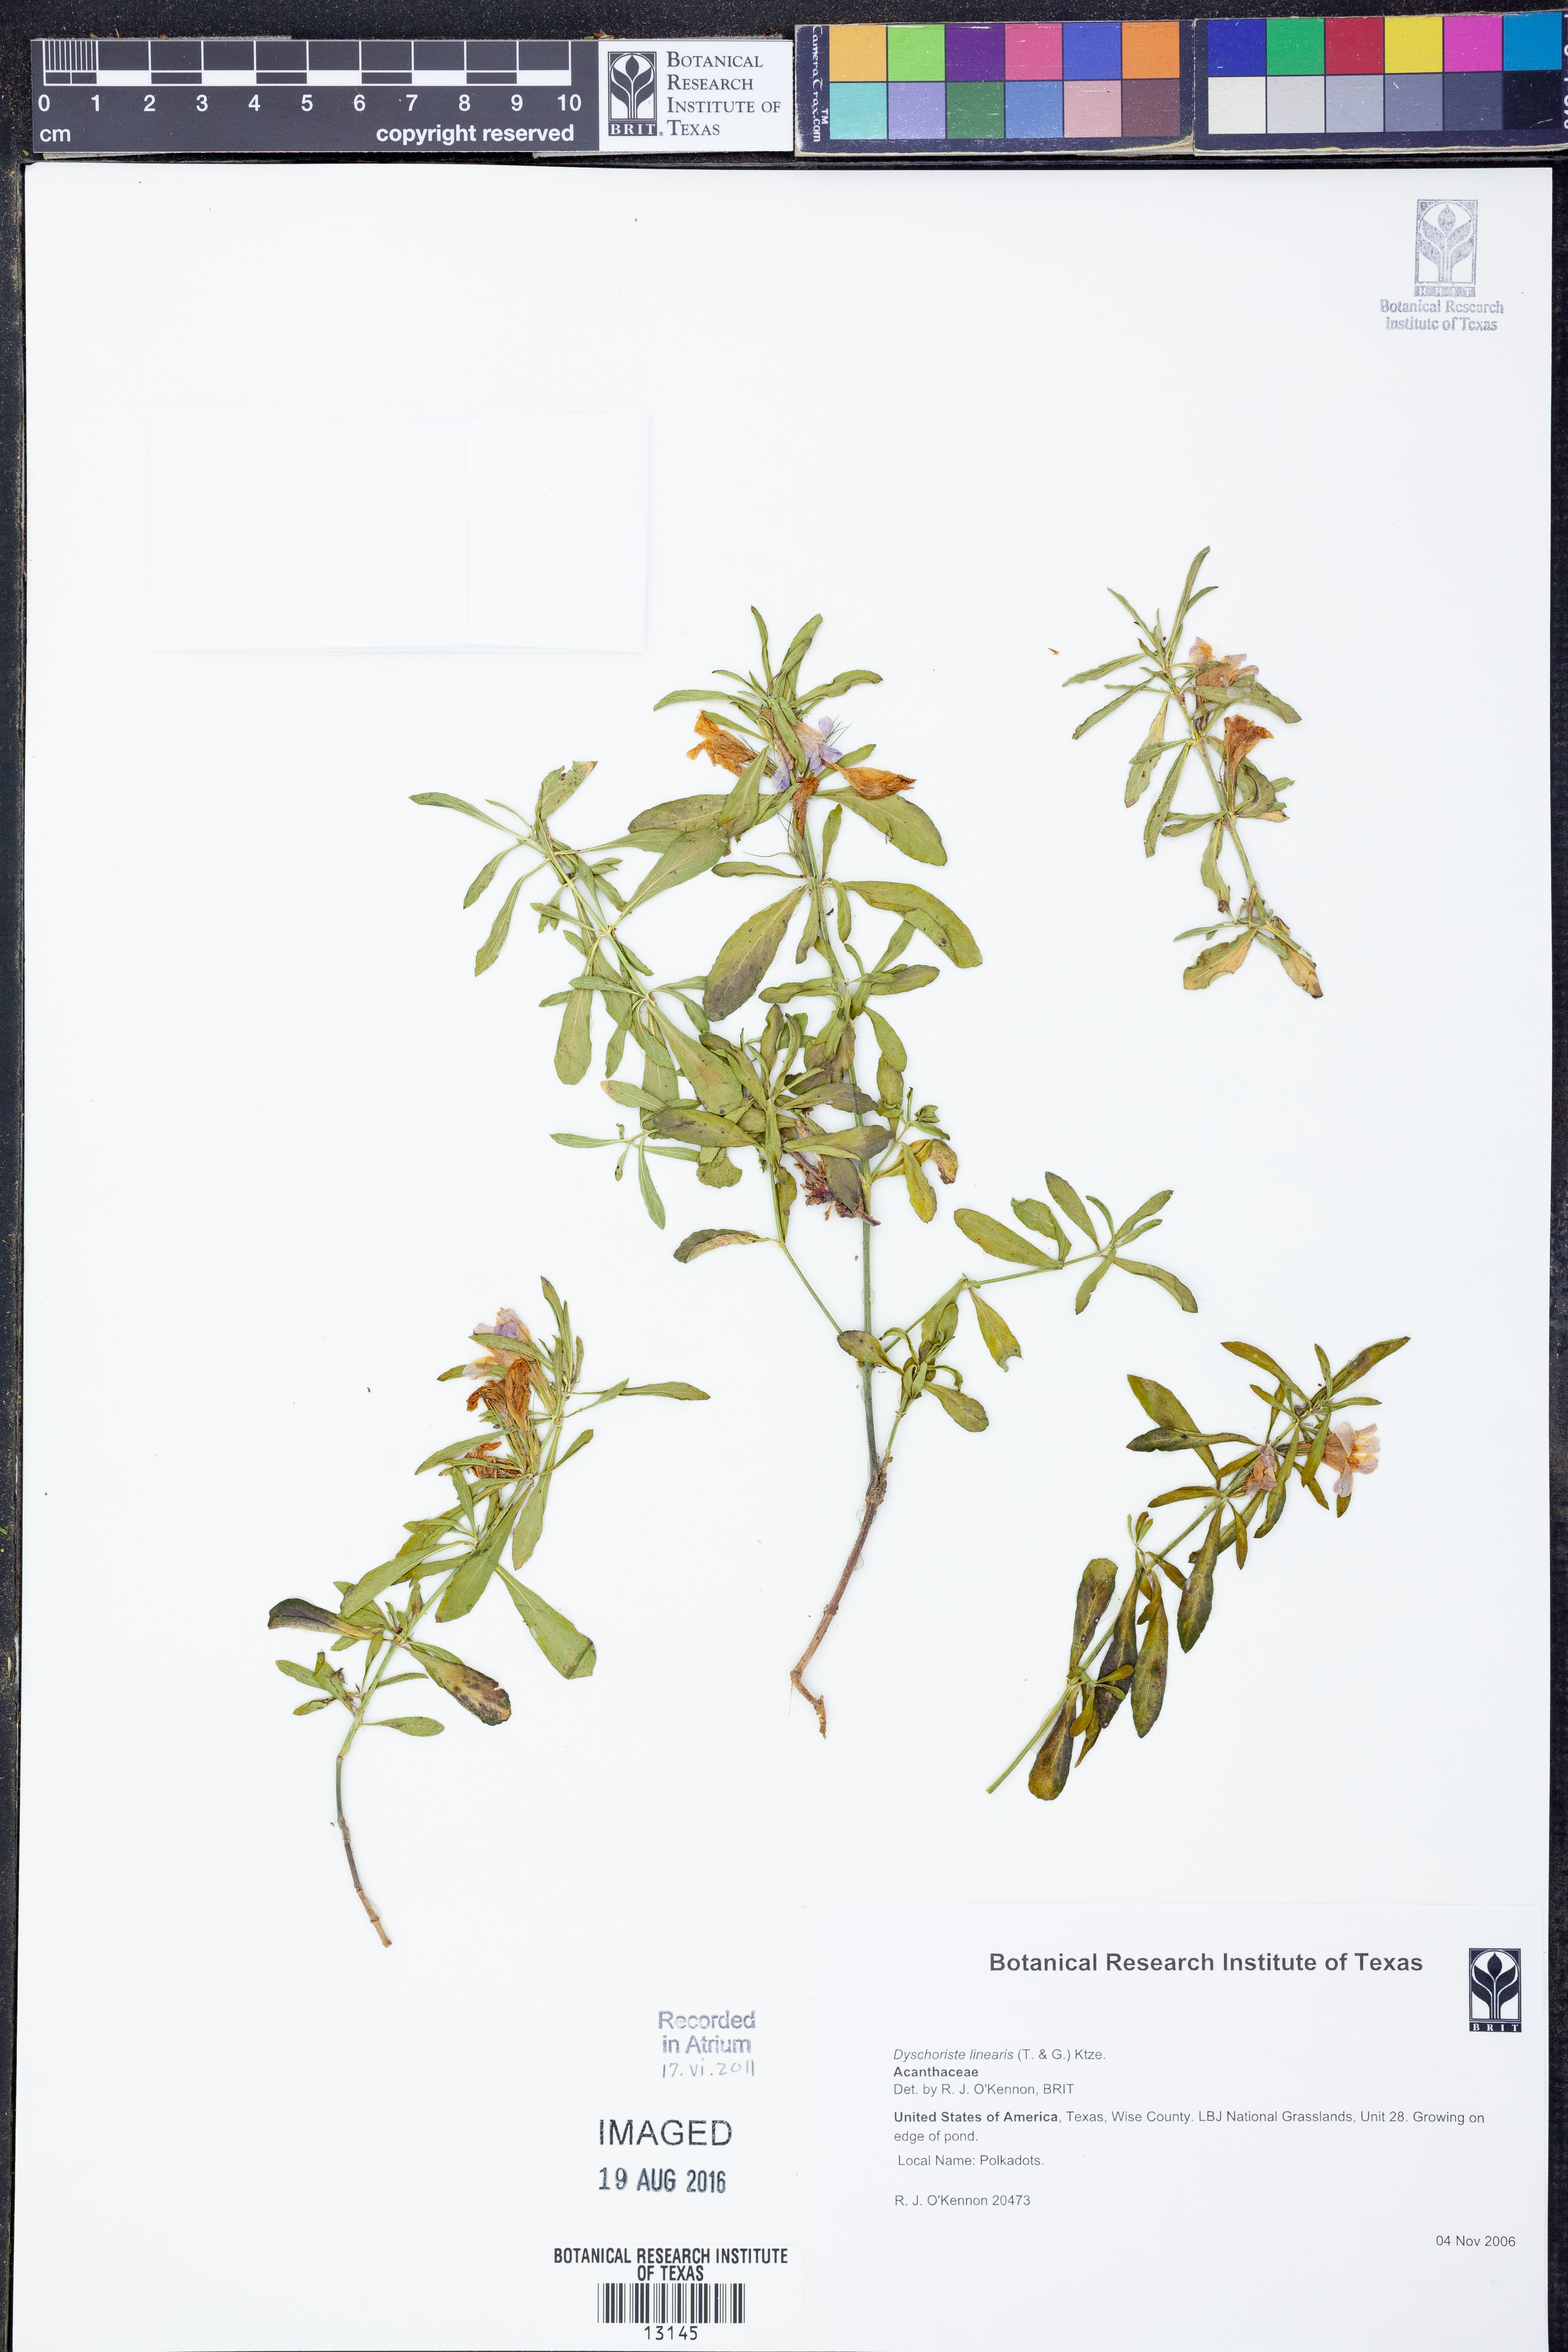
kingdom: Plantae
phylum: Tracheophyta
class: Magnoliopsida
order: Lamiales
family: Acanthaceae
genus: Dyschoriste
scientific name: Dyschoriste linearis
